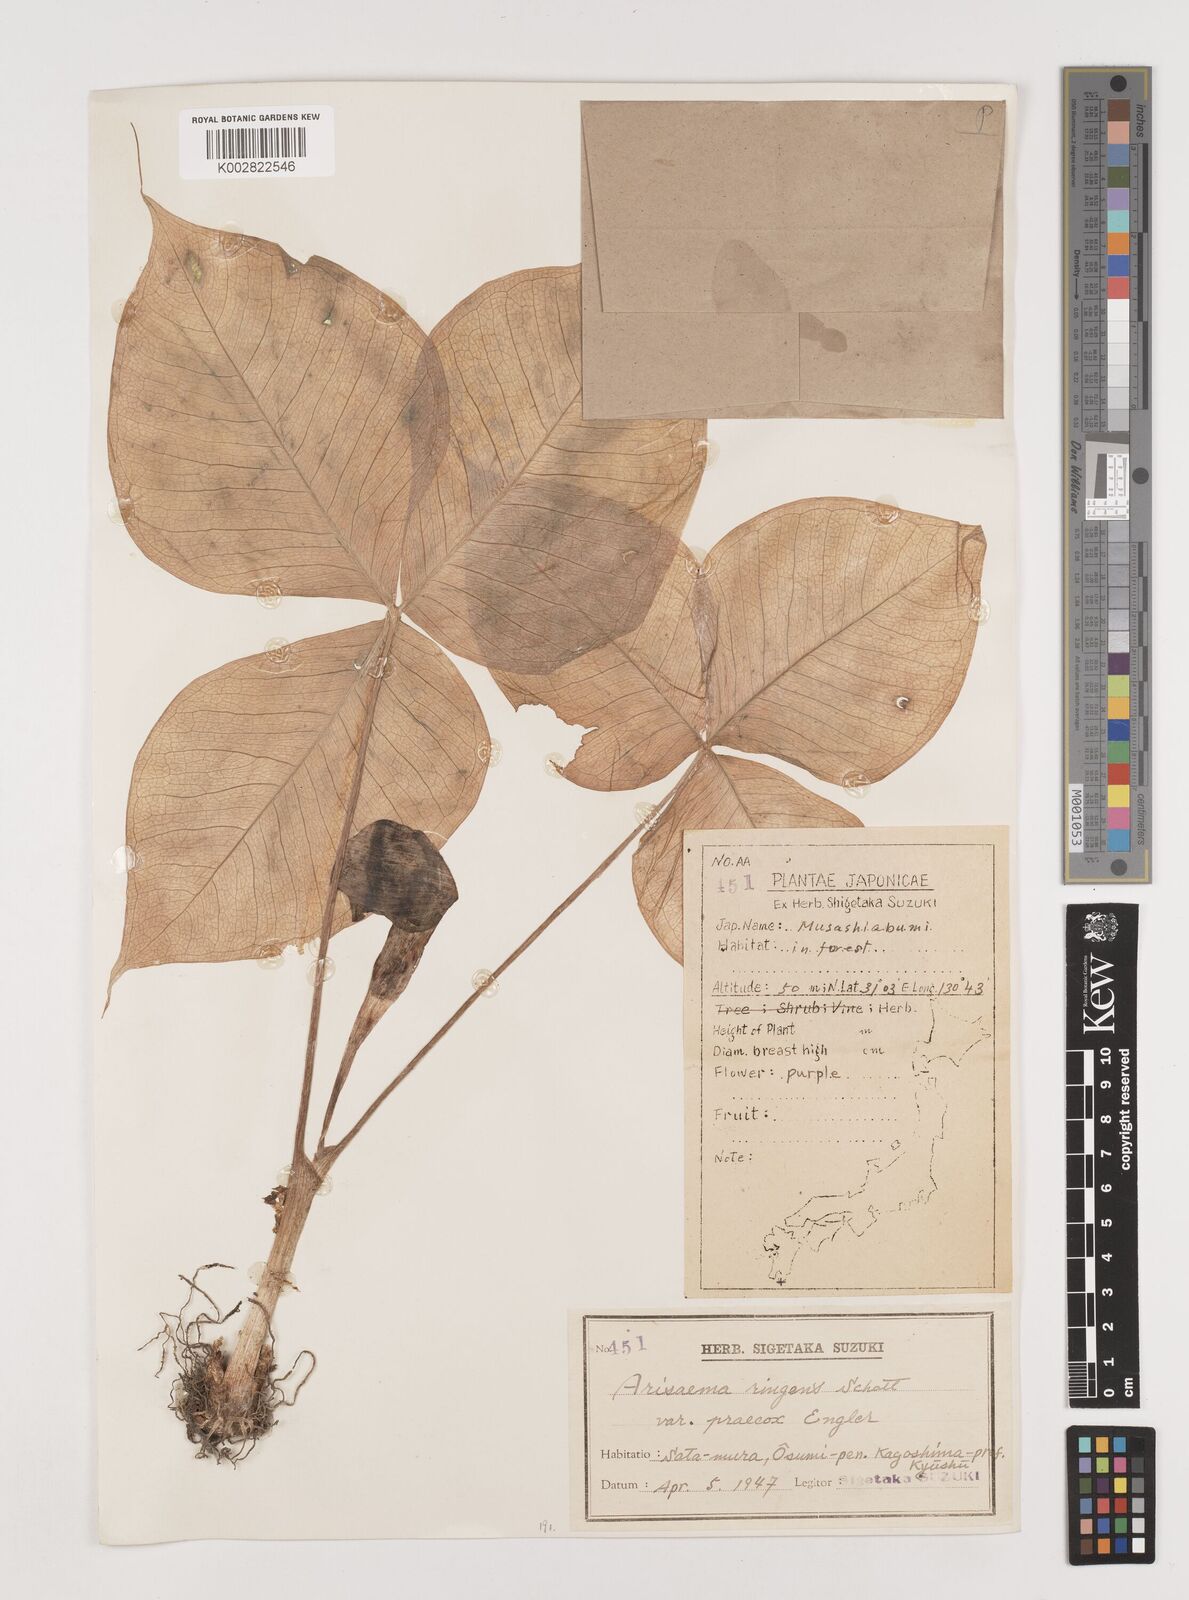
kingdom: Plantae
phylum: Tracheophyta
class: Liliopsida
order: Alismatales
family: Araceae
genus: Arisaema
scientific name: Arisaema ringens
